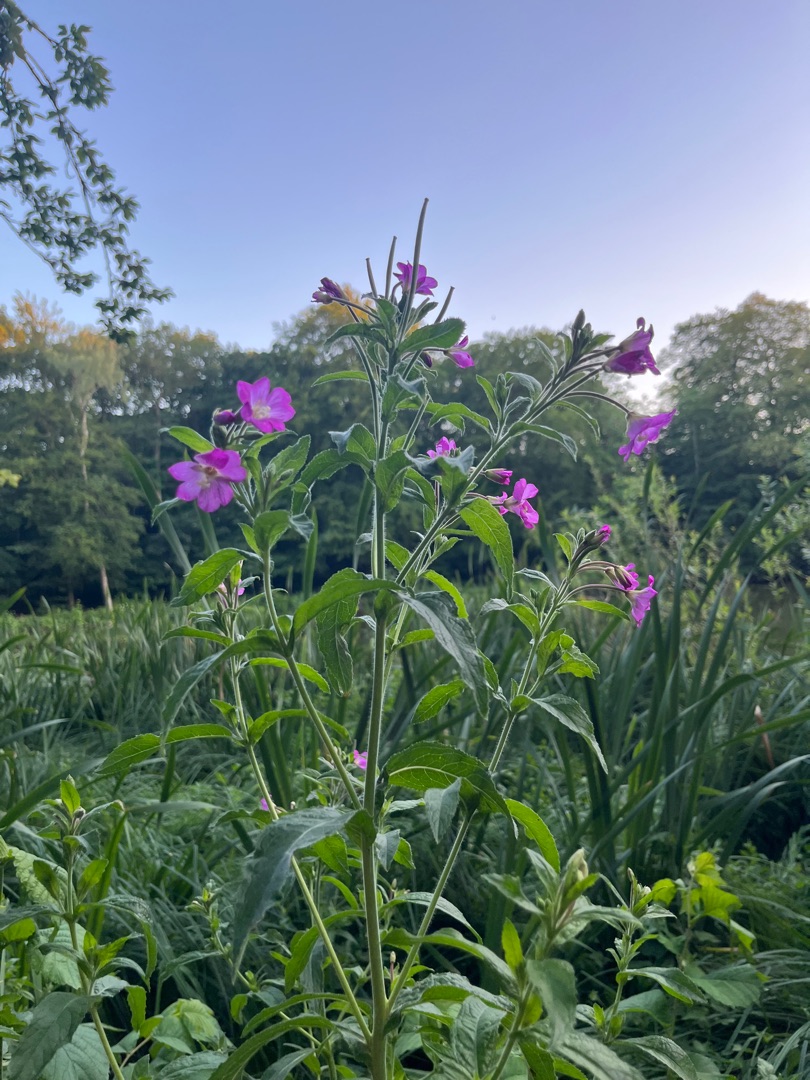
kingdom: Plantae
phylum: Tracheophyta
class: Magnoliopsida
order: Myrtales
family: Onagraceae
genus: Epilobium
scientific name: Epilobium hirsutum
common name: Lådden dueurt
